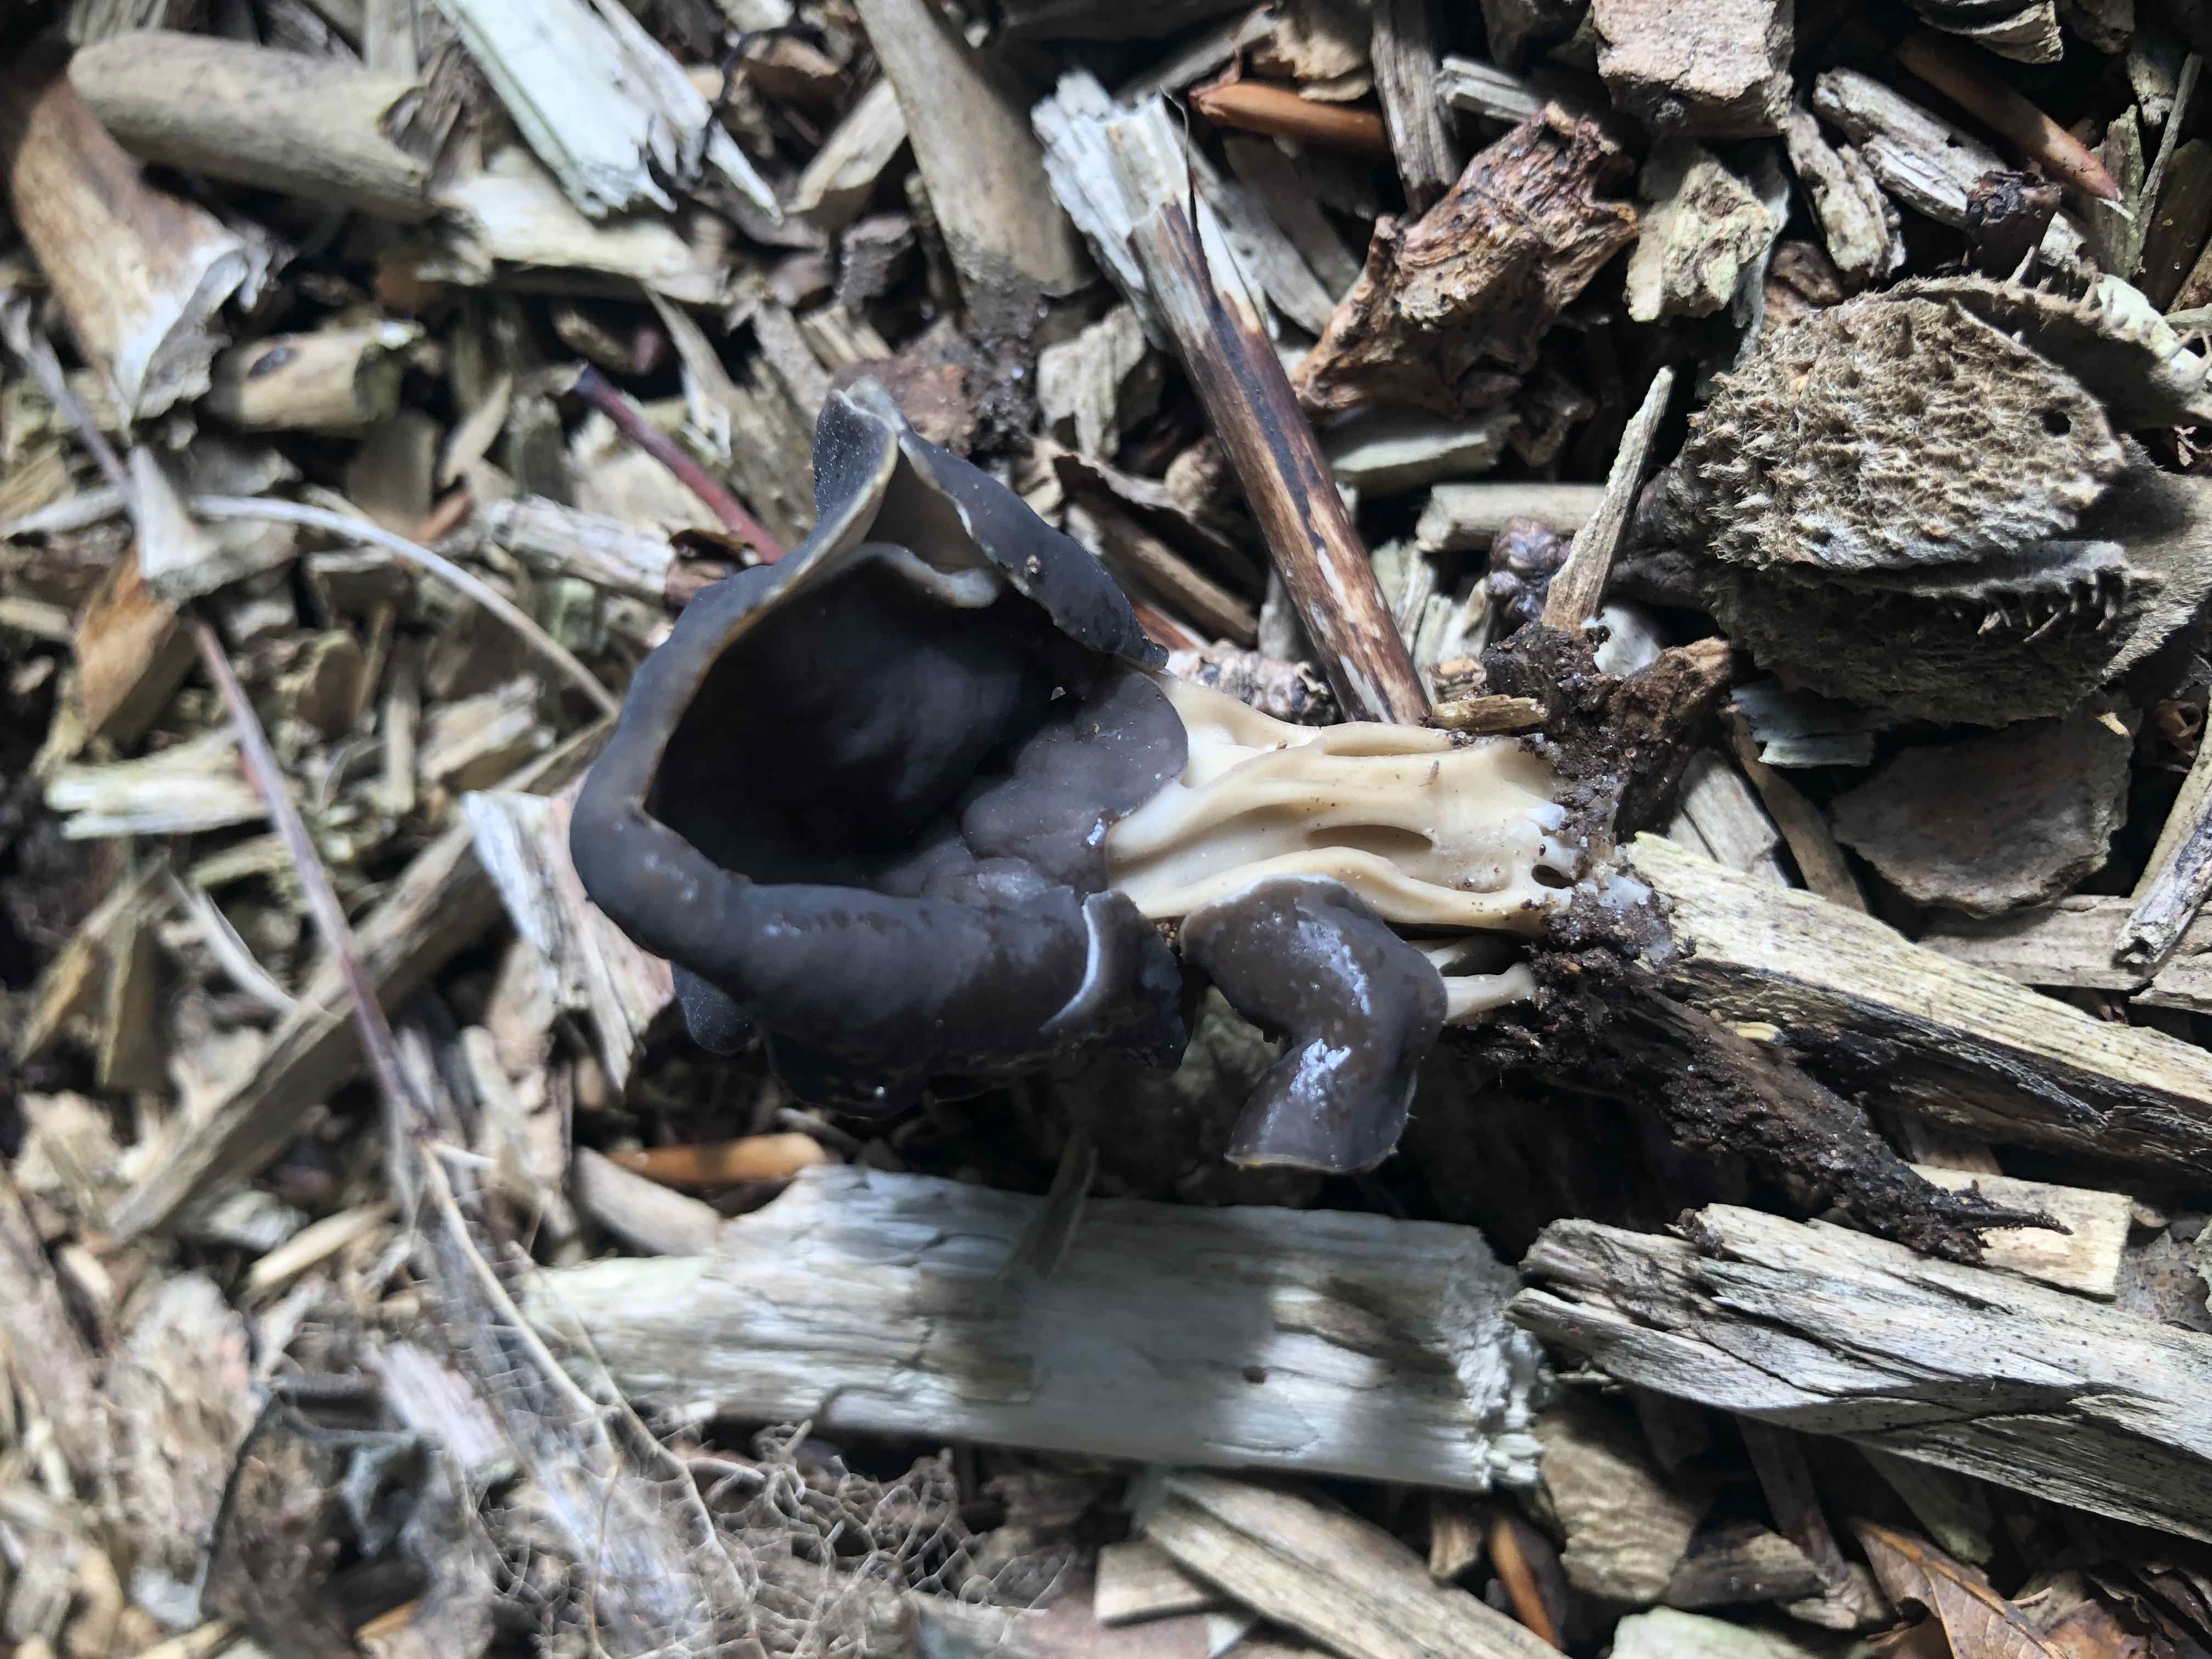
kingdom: Fungi
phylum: Ascomycota
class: Pezizomycetes
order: Pezizales
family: Helvellaceae
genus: Helvella
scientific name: Helvella lacunosa
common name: grubet foldhat
